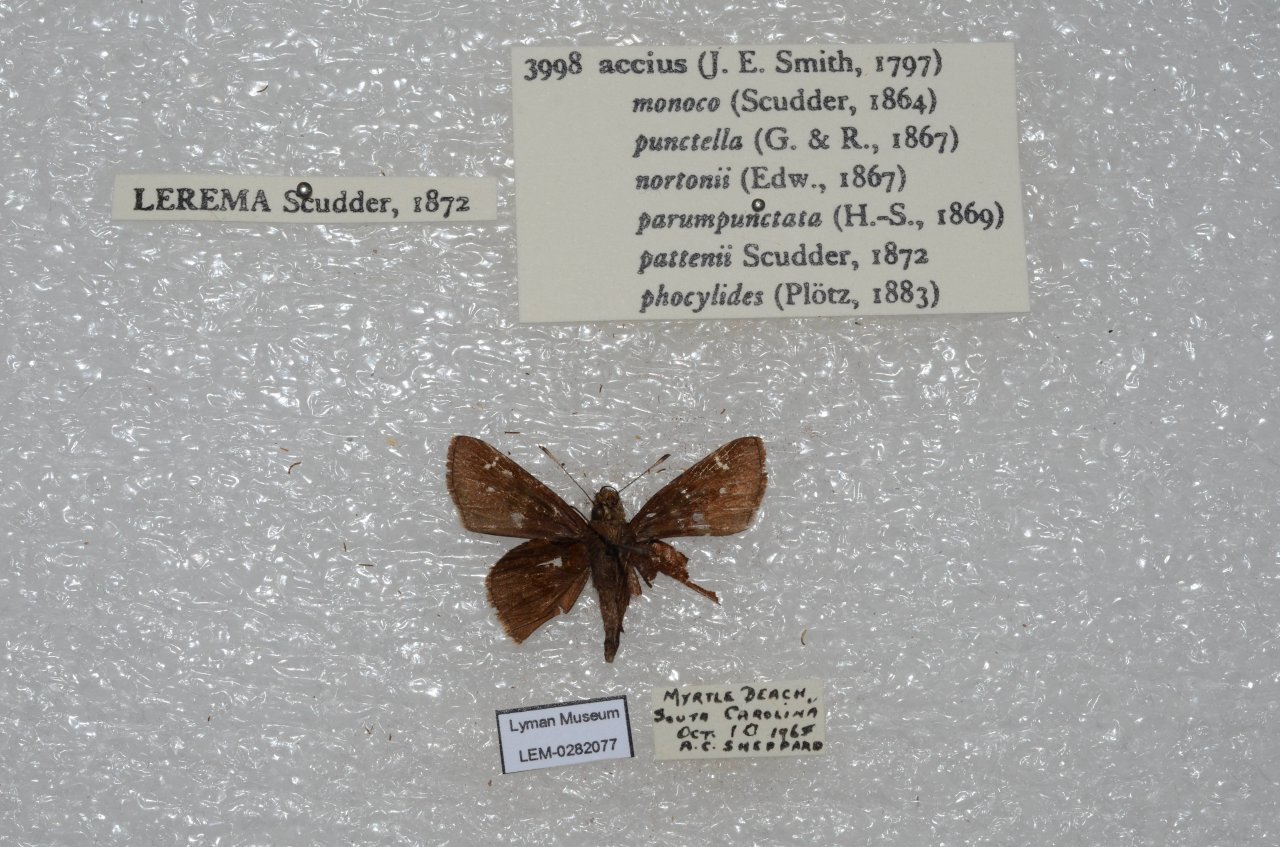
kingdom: Animalia
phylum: Arthropoda
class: Insecta
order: Lepidoptera
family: Hesperiidae
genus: Lerema
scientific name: Lerema accius
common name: Clouded Skipper
